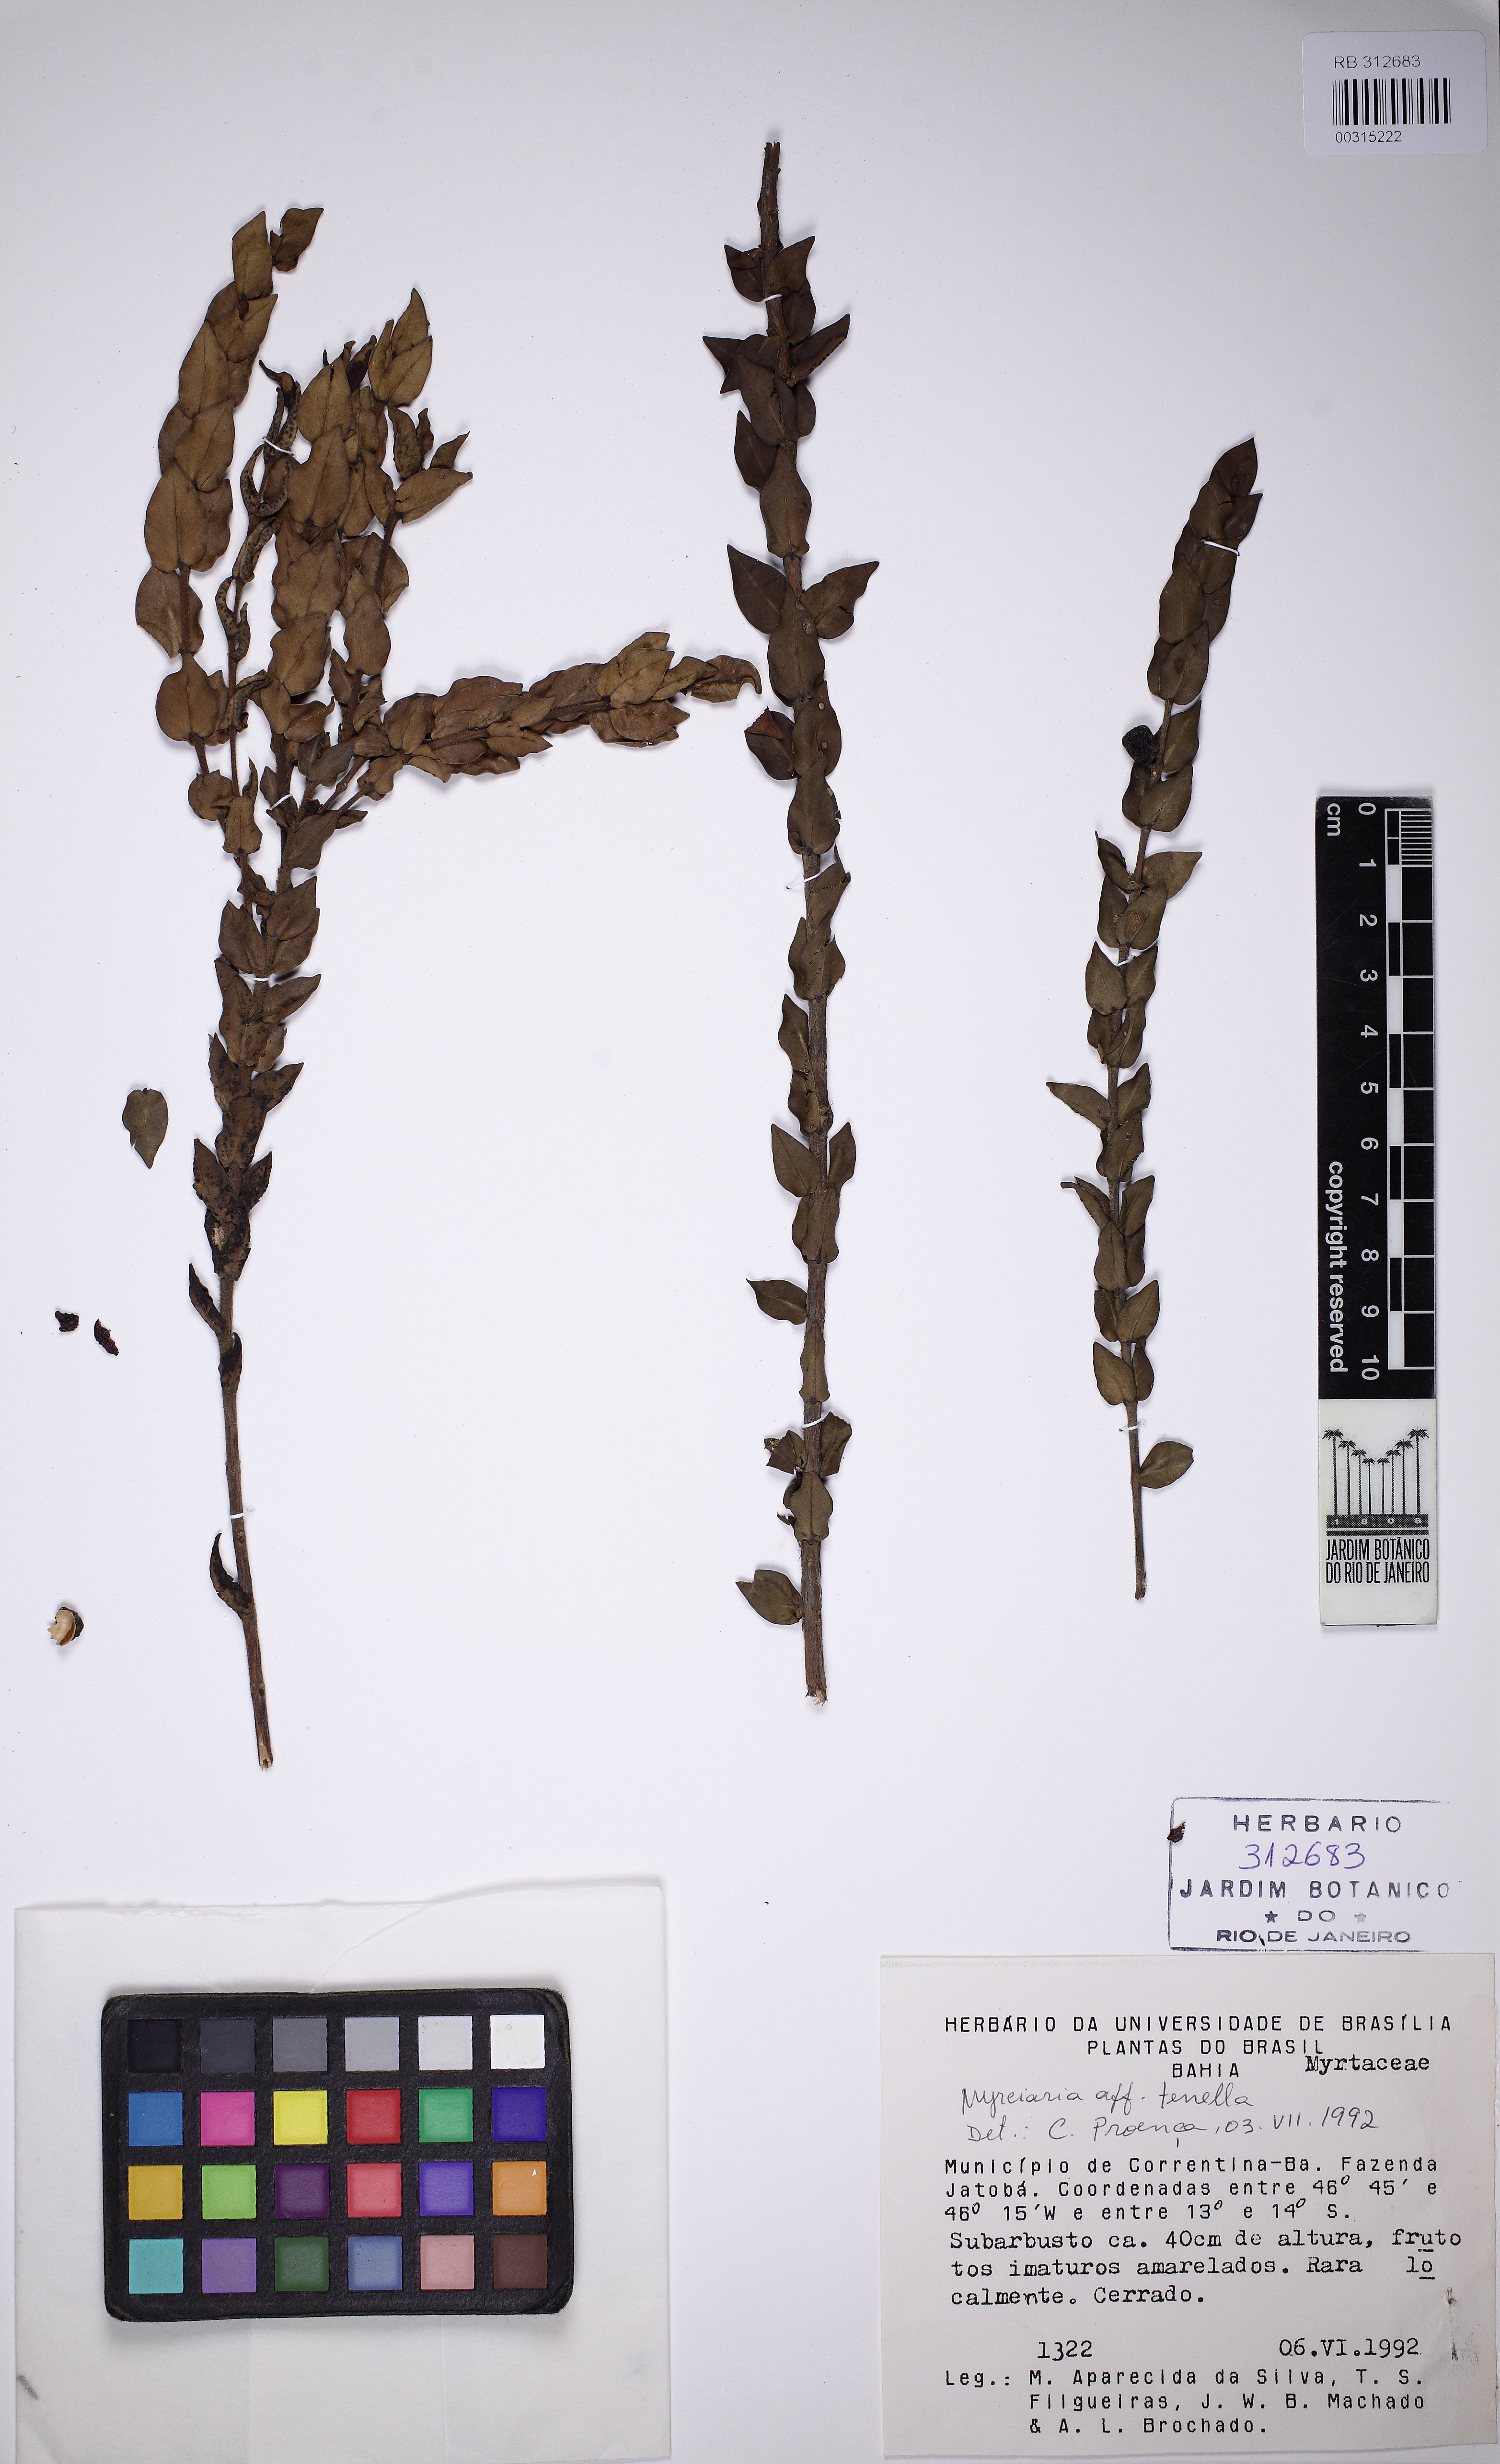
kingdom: Plantae
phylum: Tracheophyta
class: Magnoliopsida
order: Myrtales
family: Myrtaceae
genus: Myrciaria
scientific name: Myrciaria cuspidata
